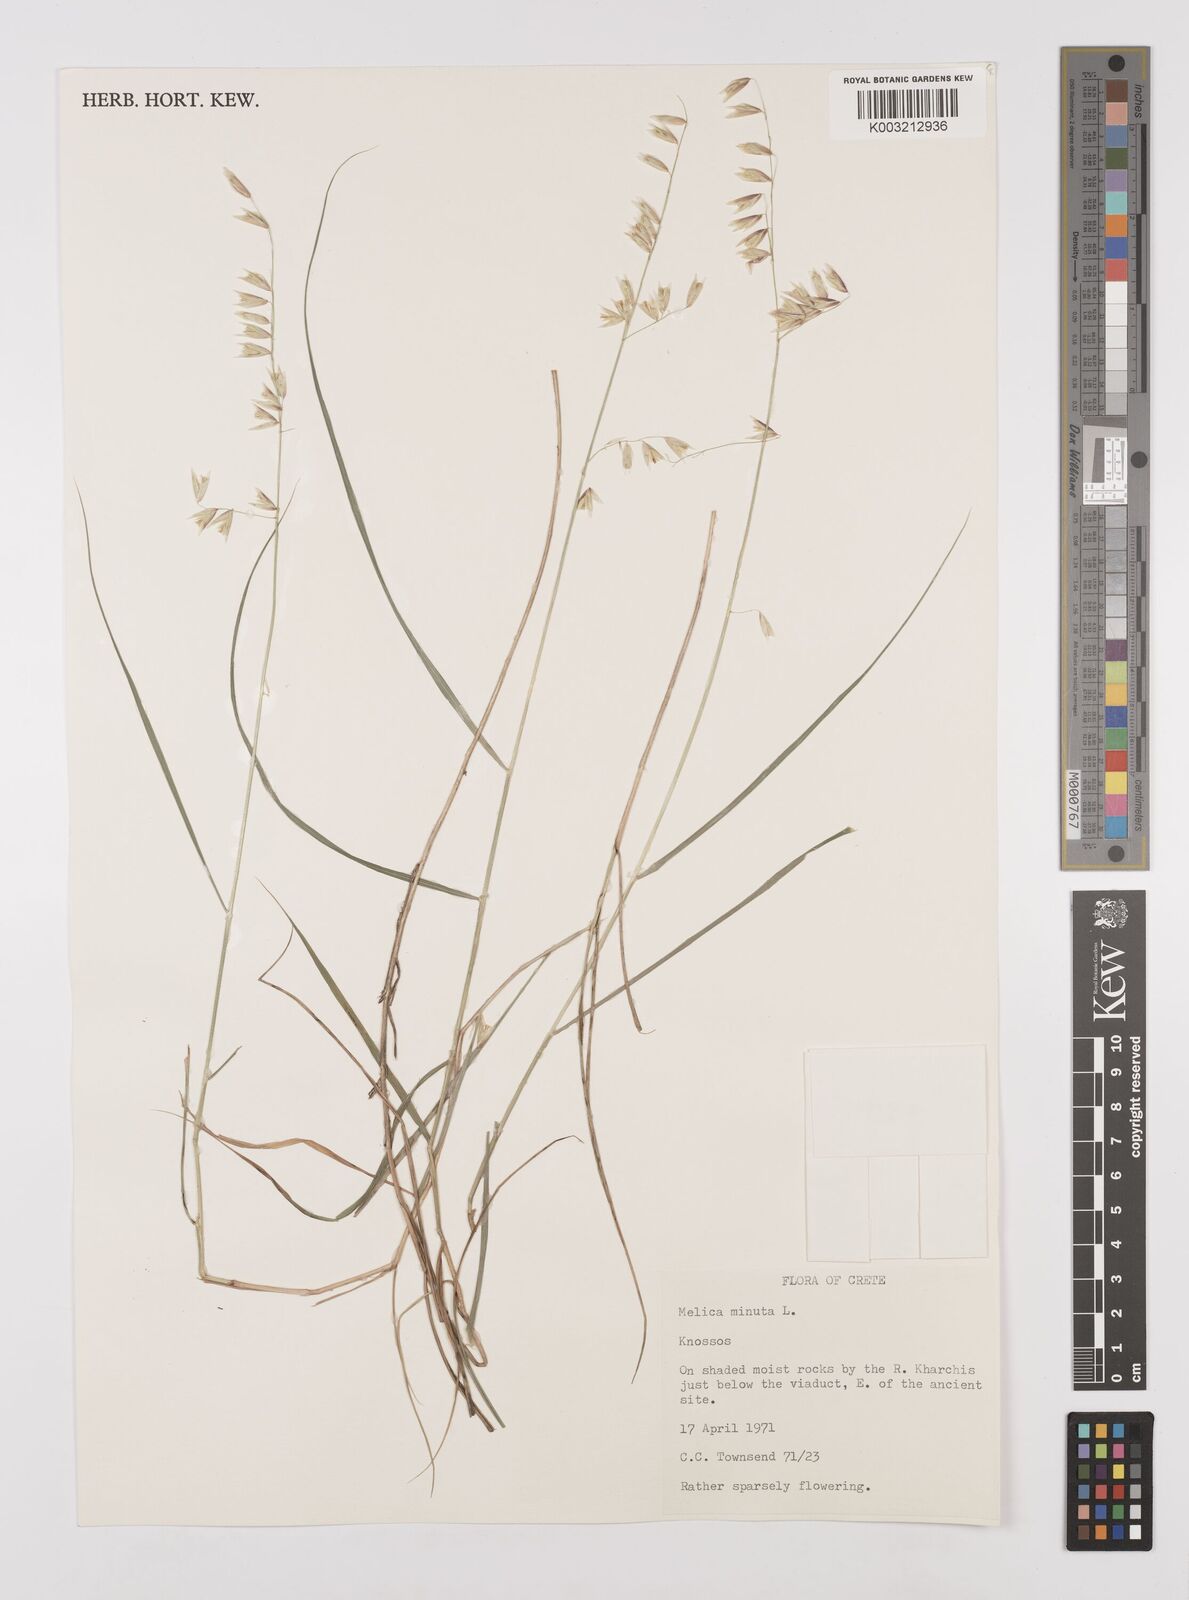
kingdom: Plantae
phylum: Tracheophyta
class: Liliopsida
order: Poales
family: Poaceae
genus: Melica
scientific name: Melica minuta
